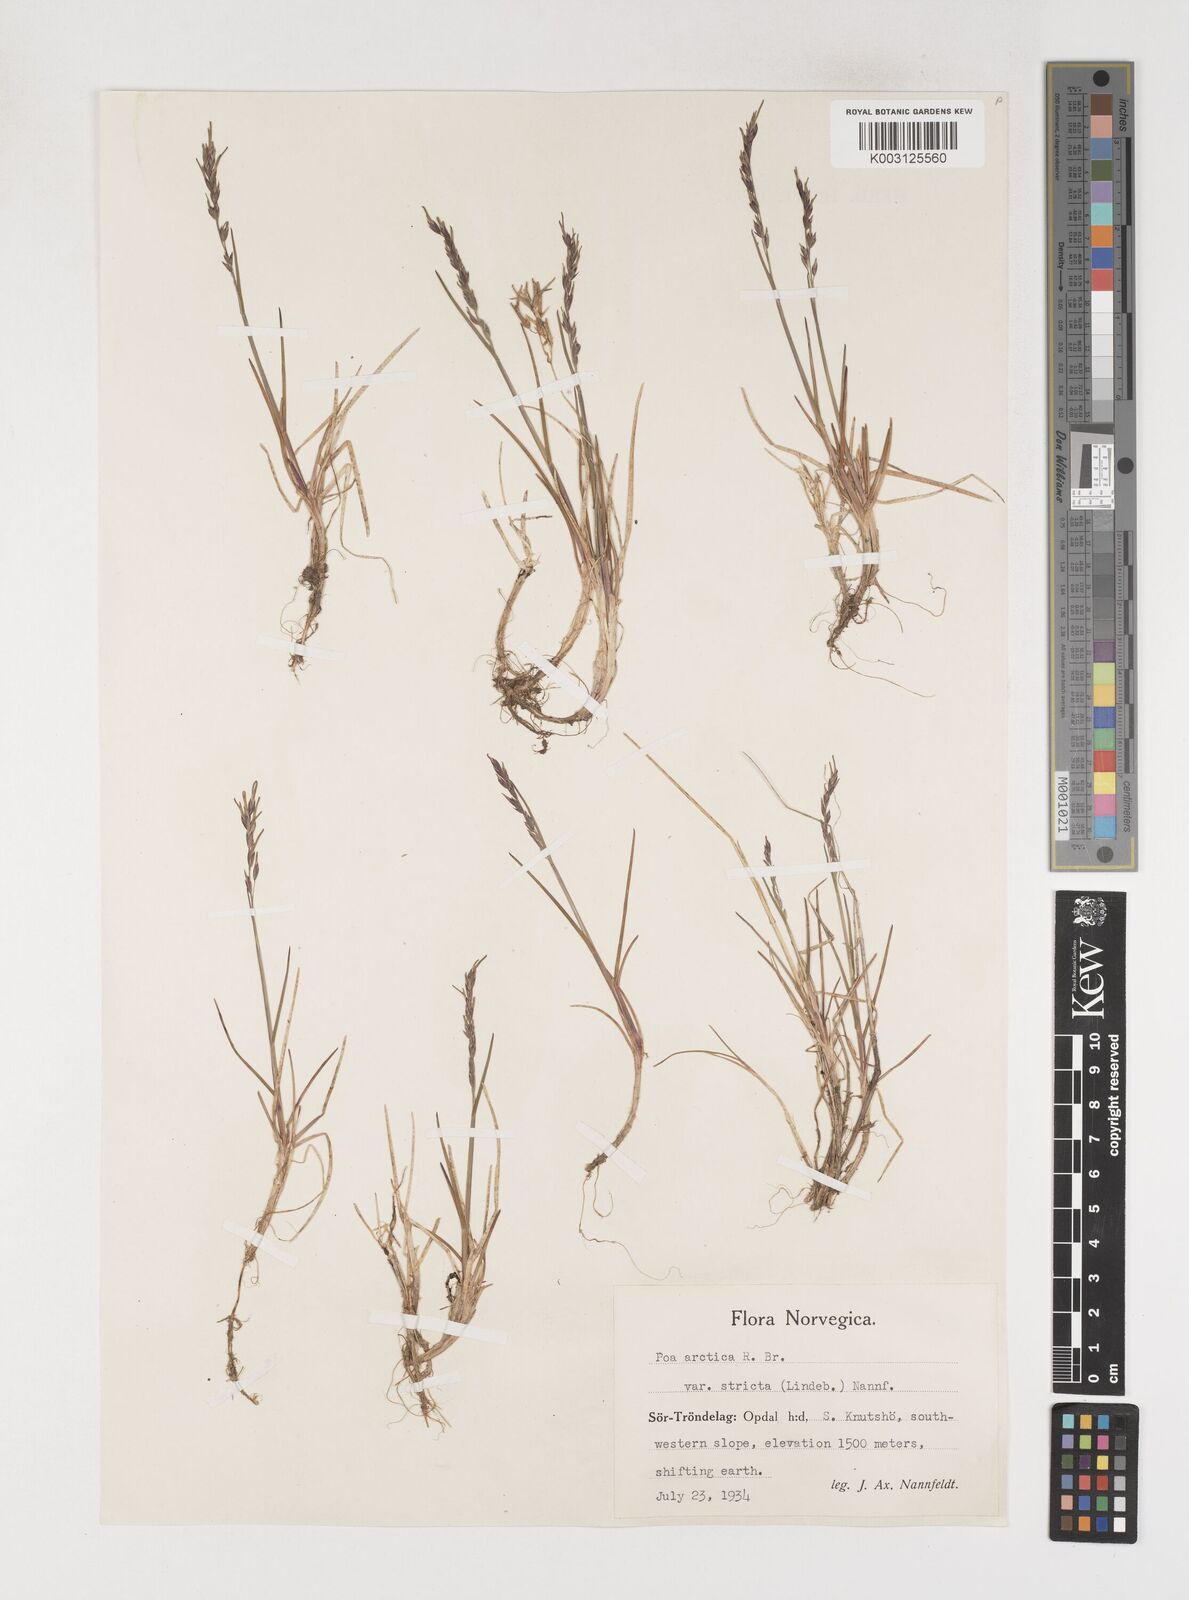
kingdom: Plantae
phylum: Tracheophyta
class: Liliopsida
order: Poales
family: Poaceae
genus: Poa
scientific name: Poa arctica
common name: Arctic bluegrass
